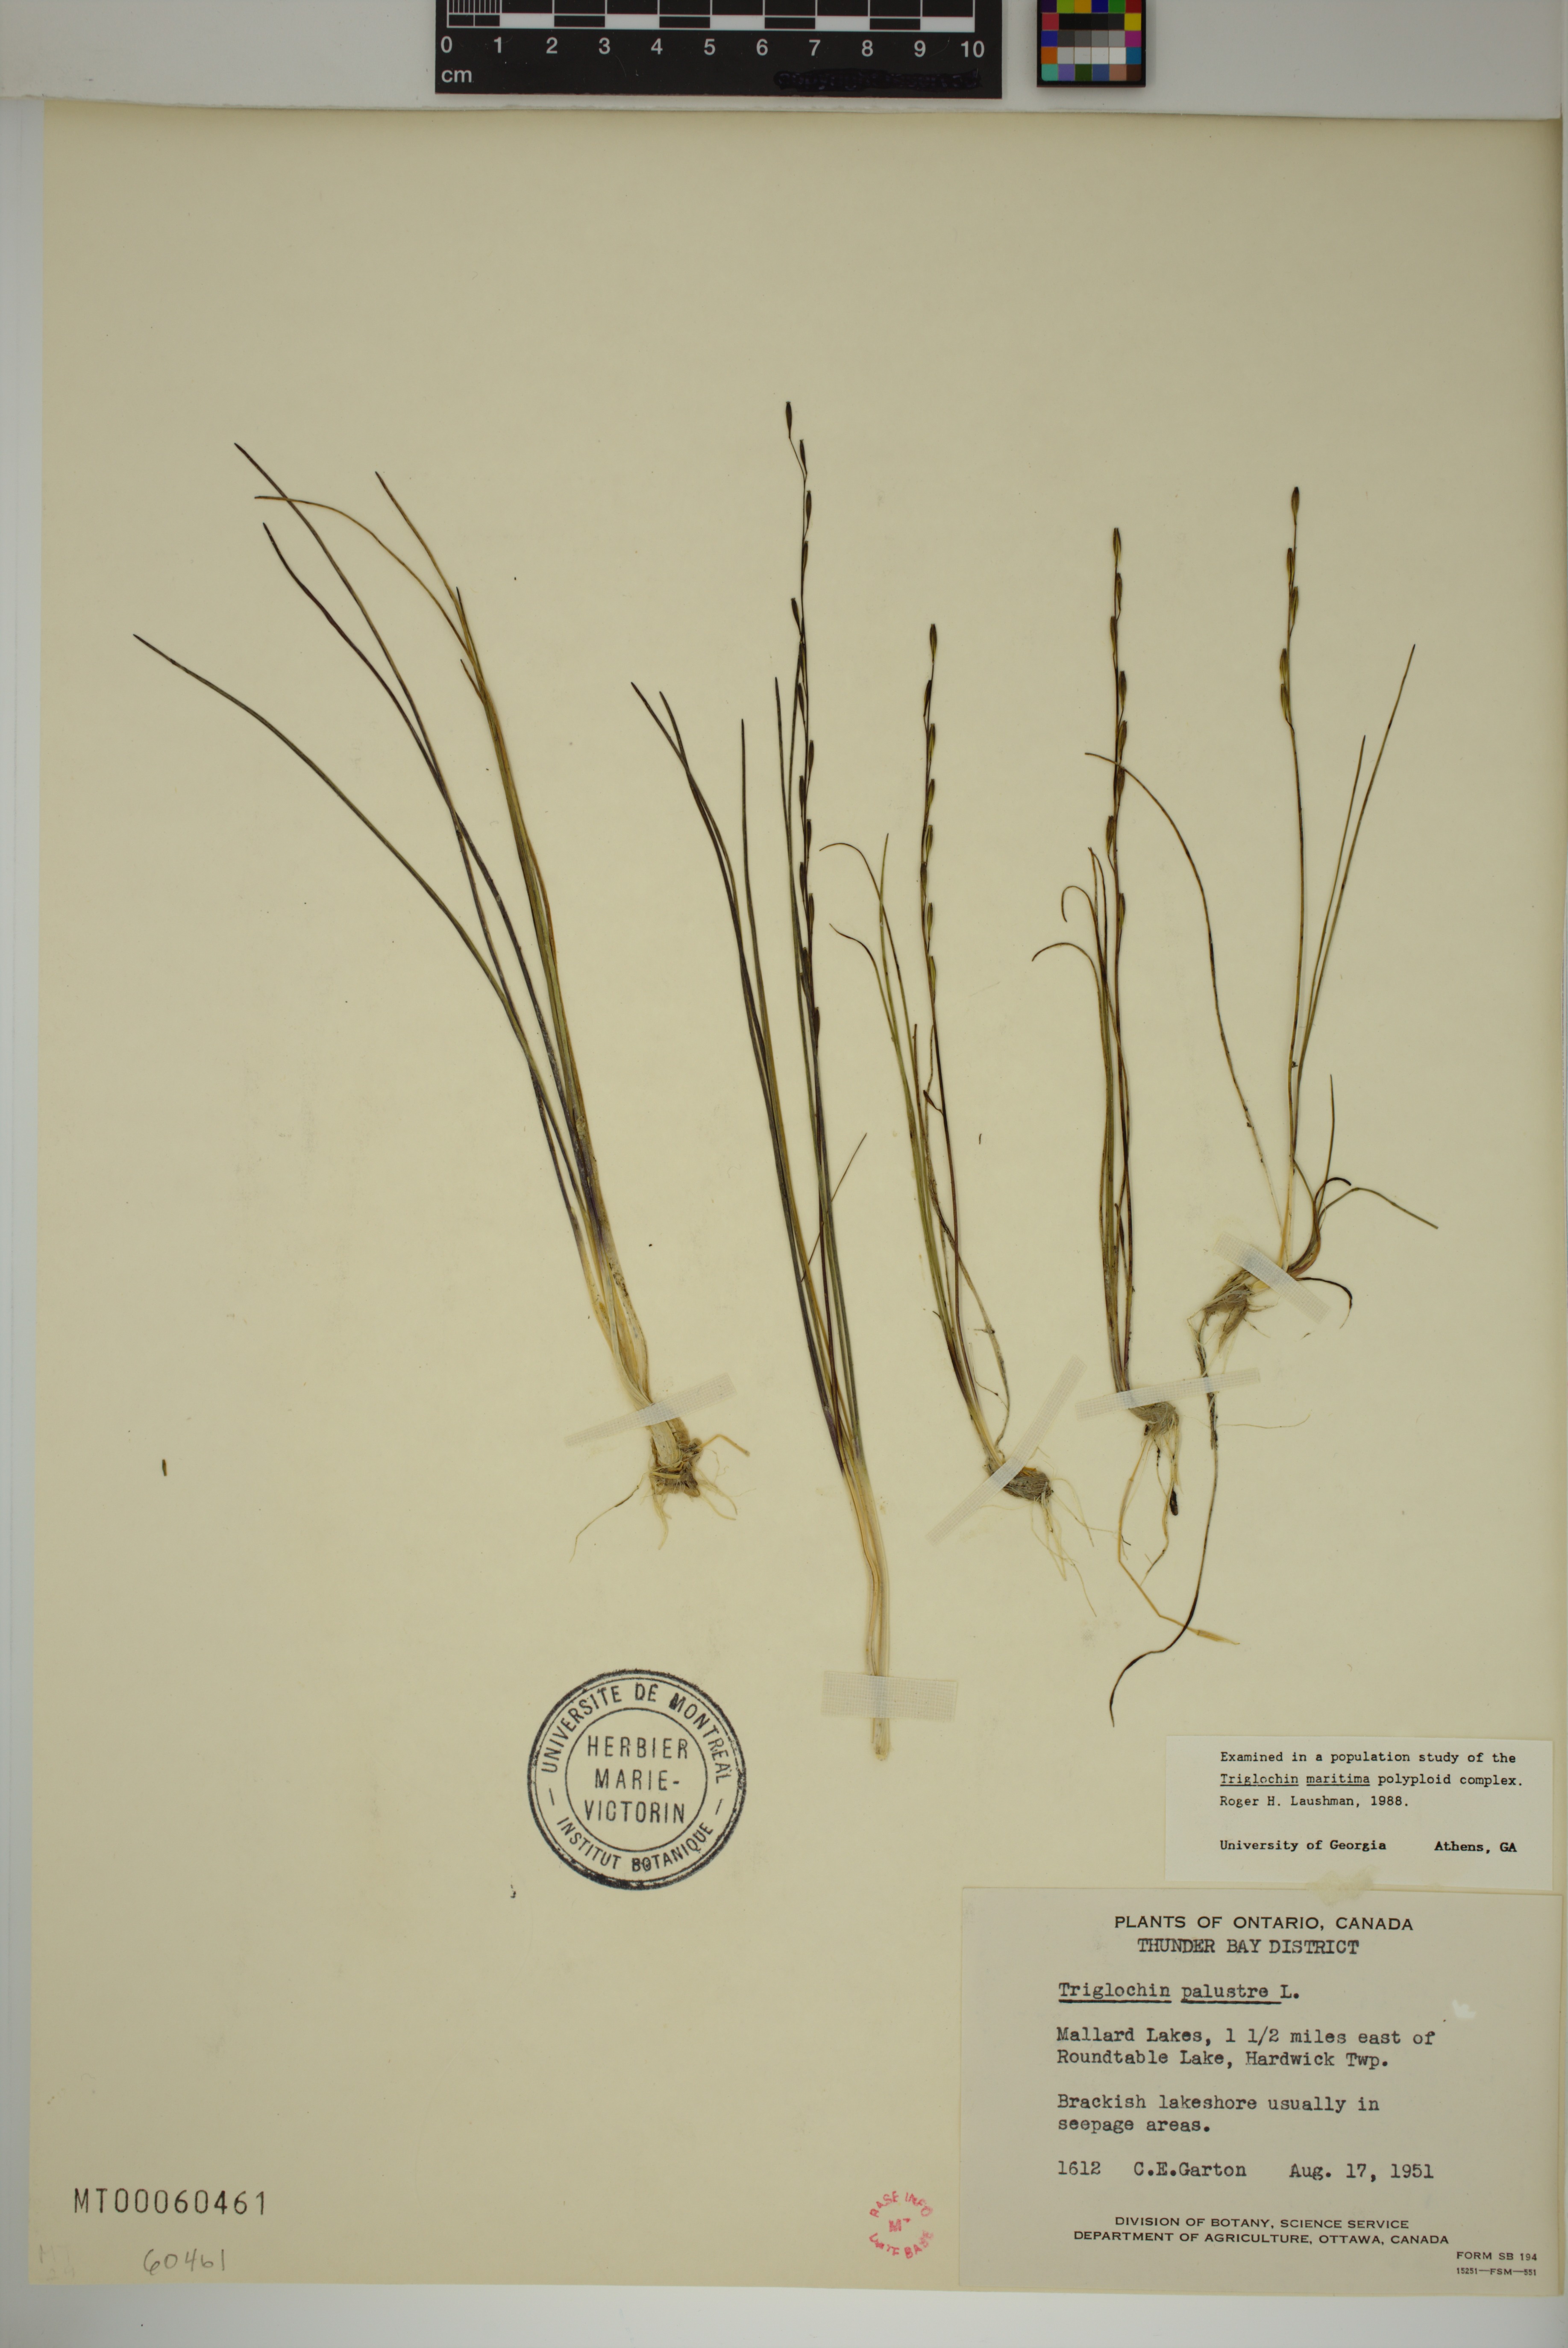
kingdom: Plantae
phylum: Tracheophyta
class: Liliopsida
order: Alismatales
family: Juncaginaceae
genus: Triglochin
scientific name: Triglochin palustris
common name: Marsh arrowgrass
